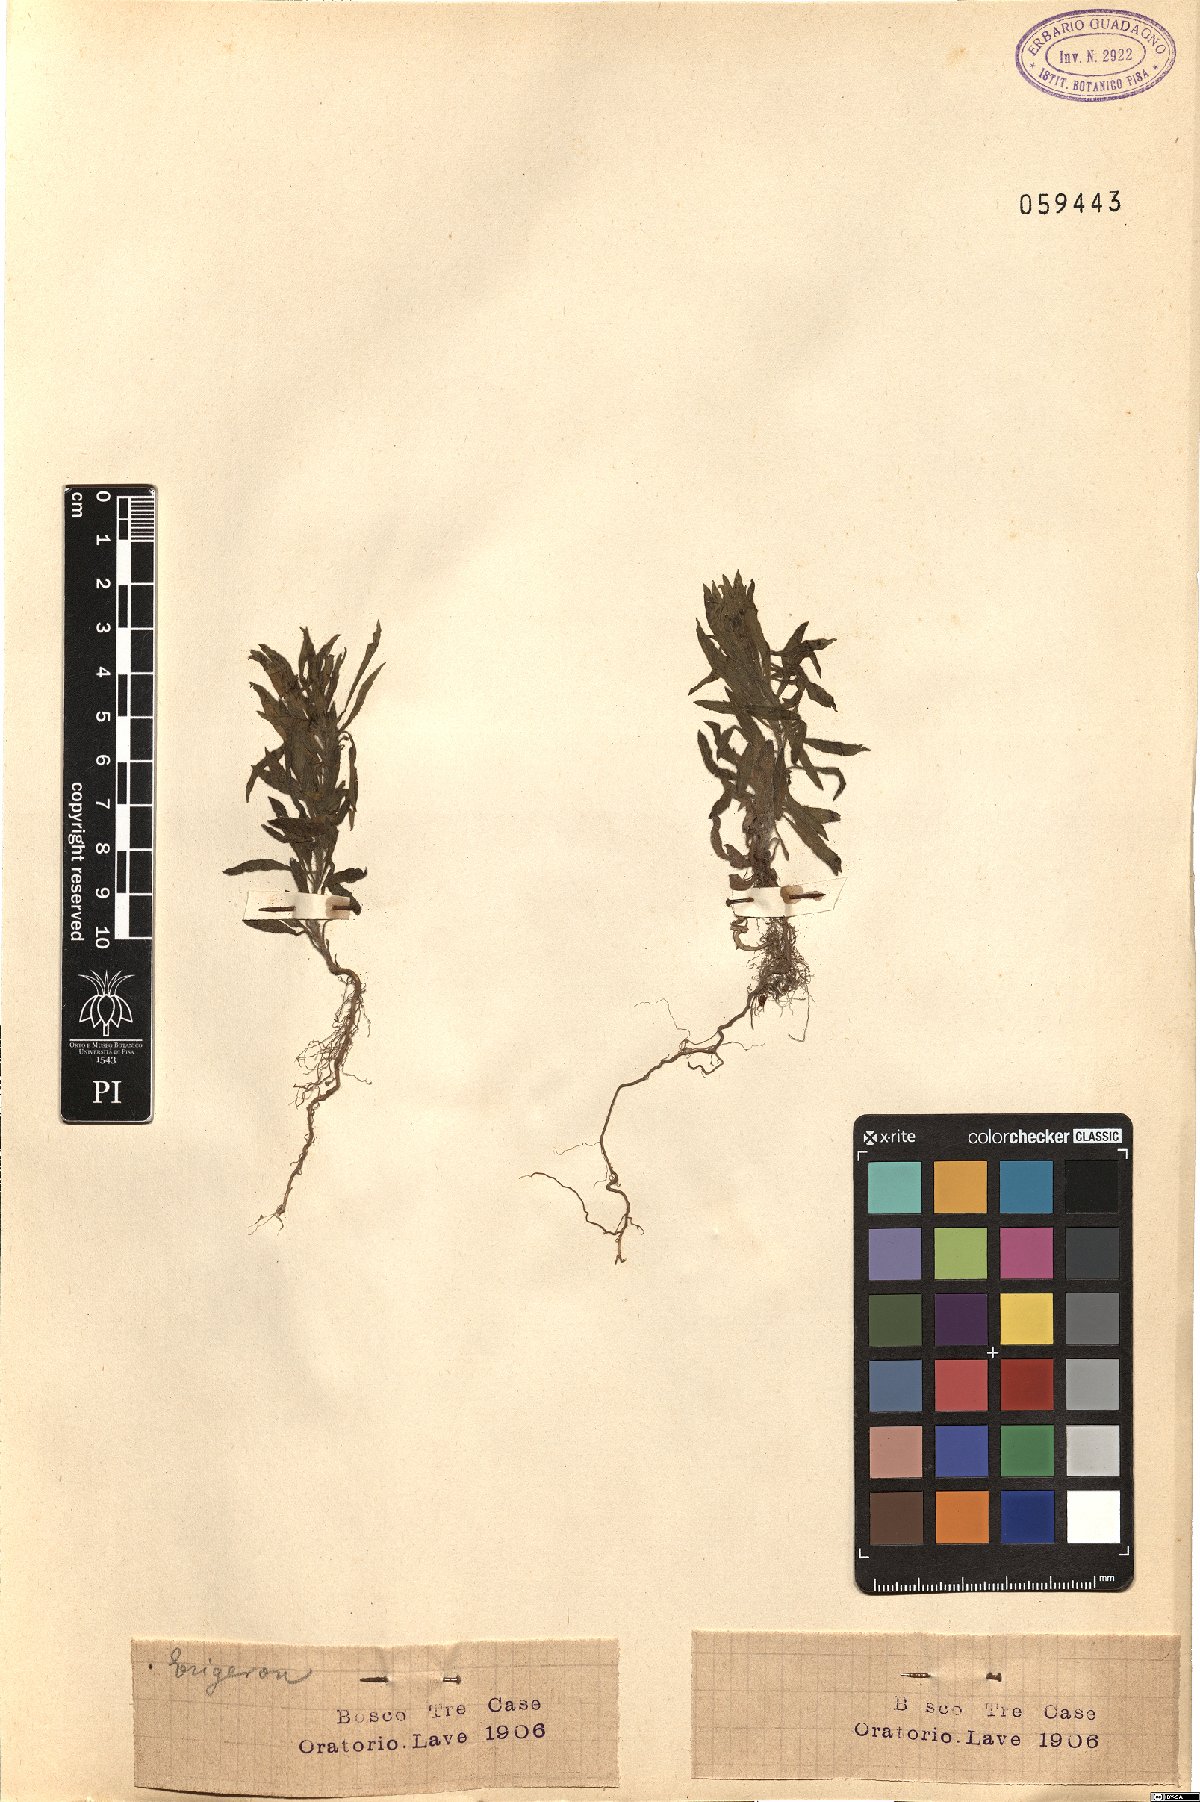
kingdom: Plantae
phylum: Tracheophyta
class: Magnoliopsida
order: Asterales
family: Asteraceae
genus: Erigeron
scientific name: Erigeron
